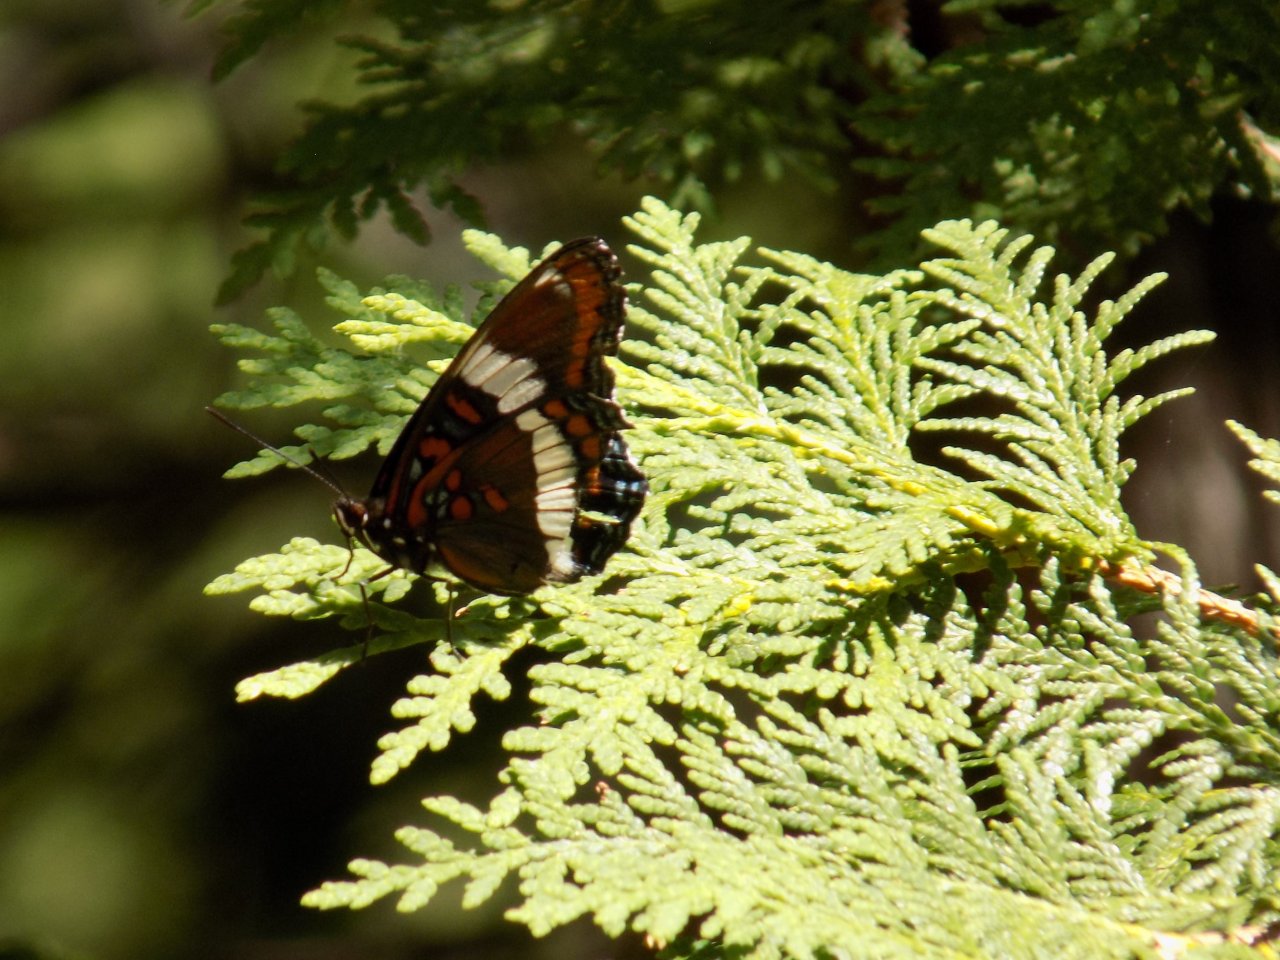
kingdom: Animalia
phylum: Arthropoda
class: Insecta
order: Lepidoptera
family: Nymphalidae
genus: Limenitis
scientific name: Limenitis arthemis
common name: Red-spotted Admiral
